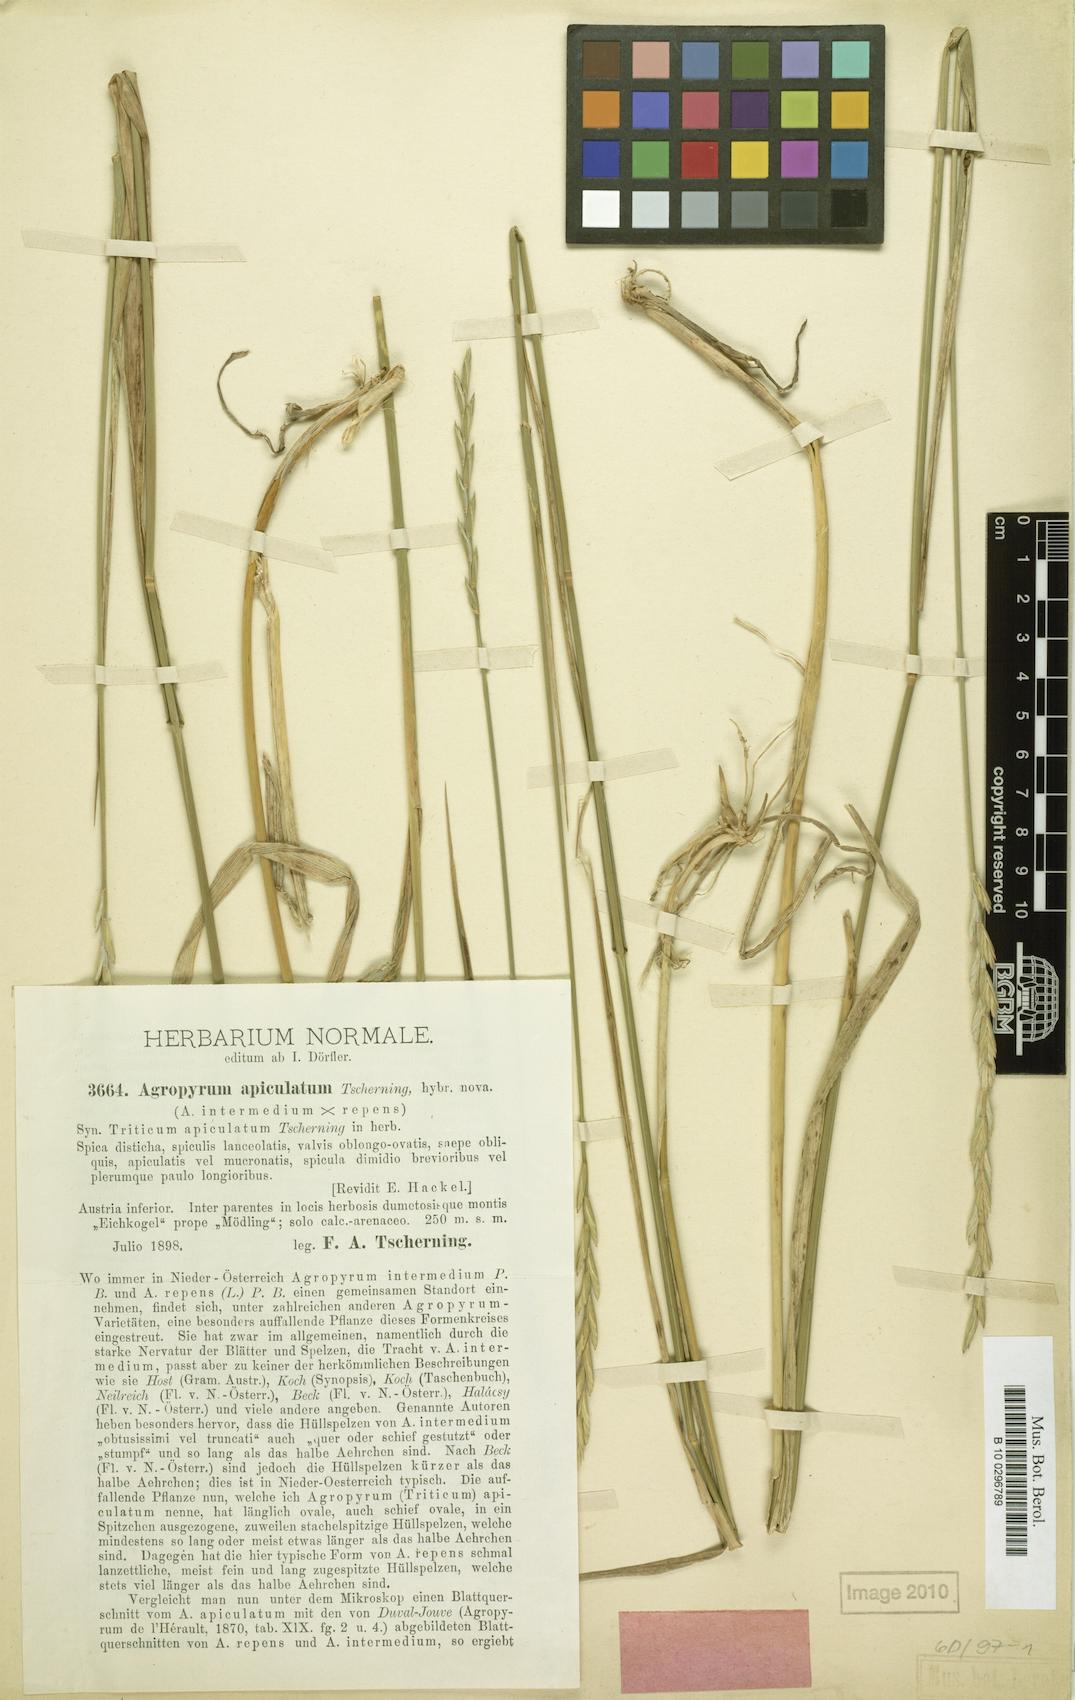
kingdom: Plantae
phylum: Tracheophyta
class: Liliopsida
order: Poales
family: Poaceae
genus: Elymus
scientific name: Elymus apiculatus
